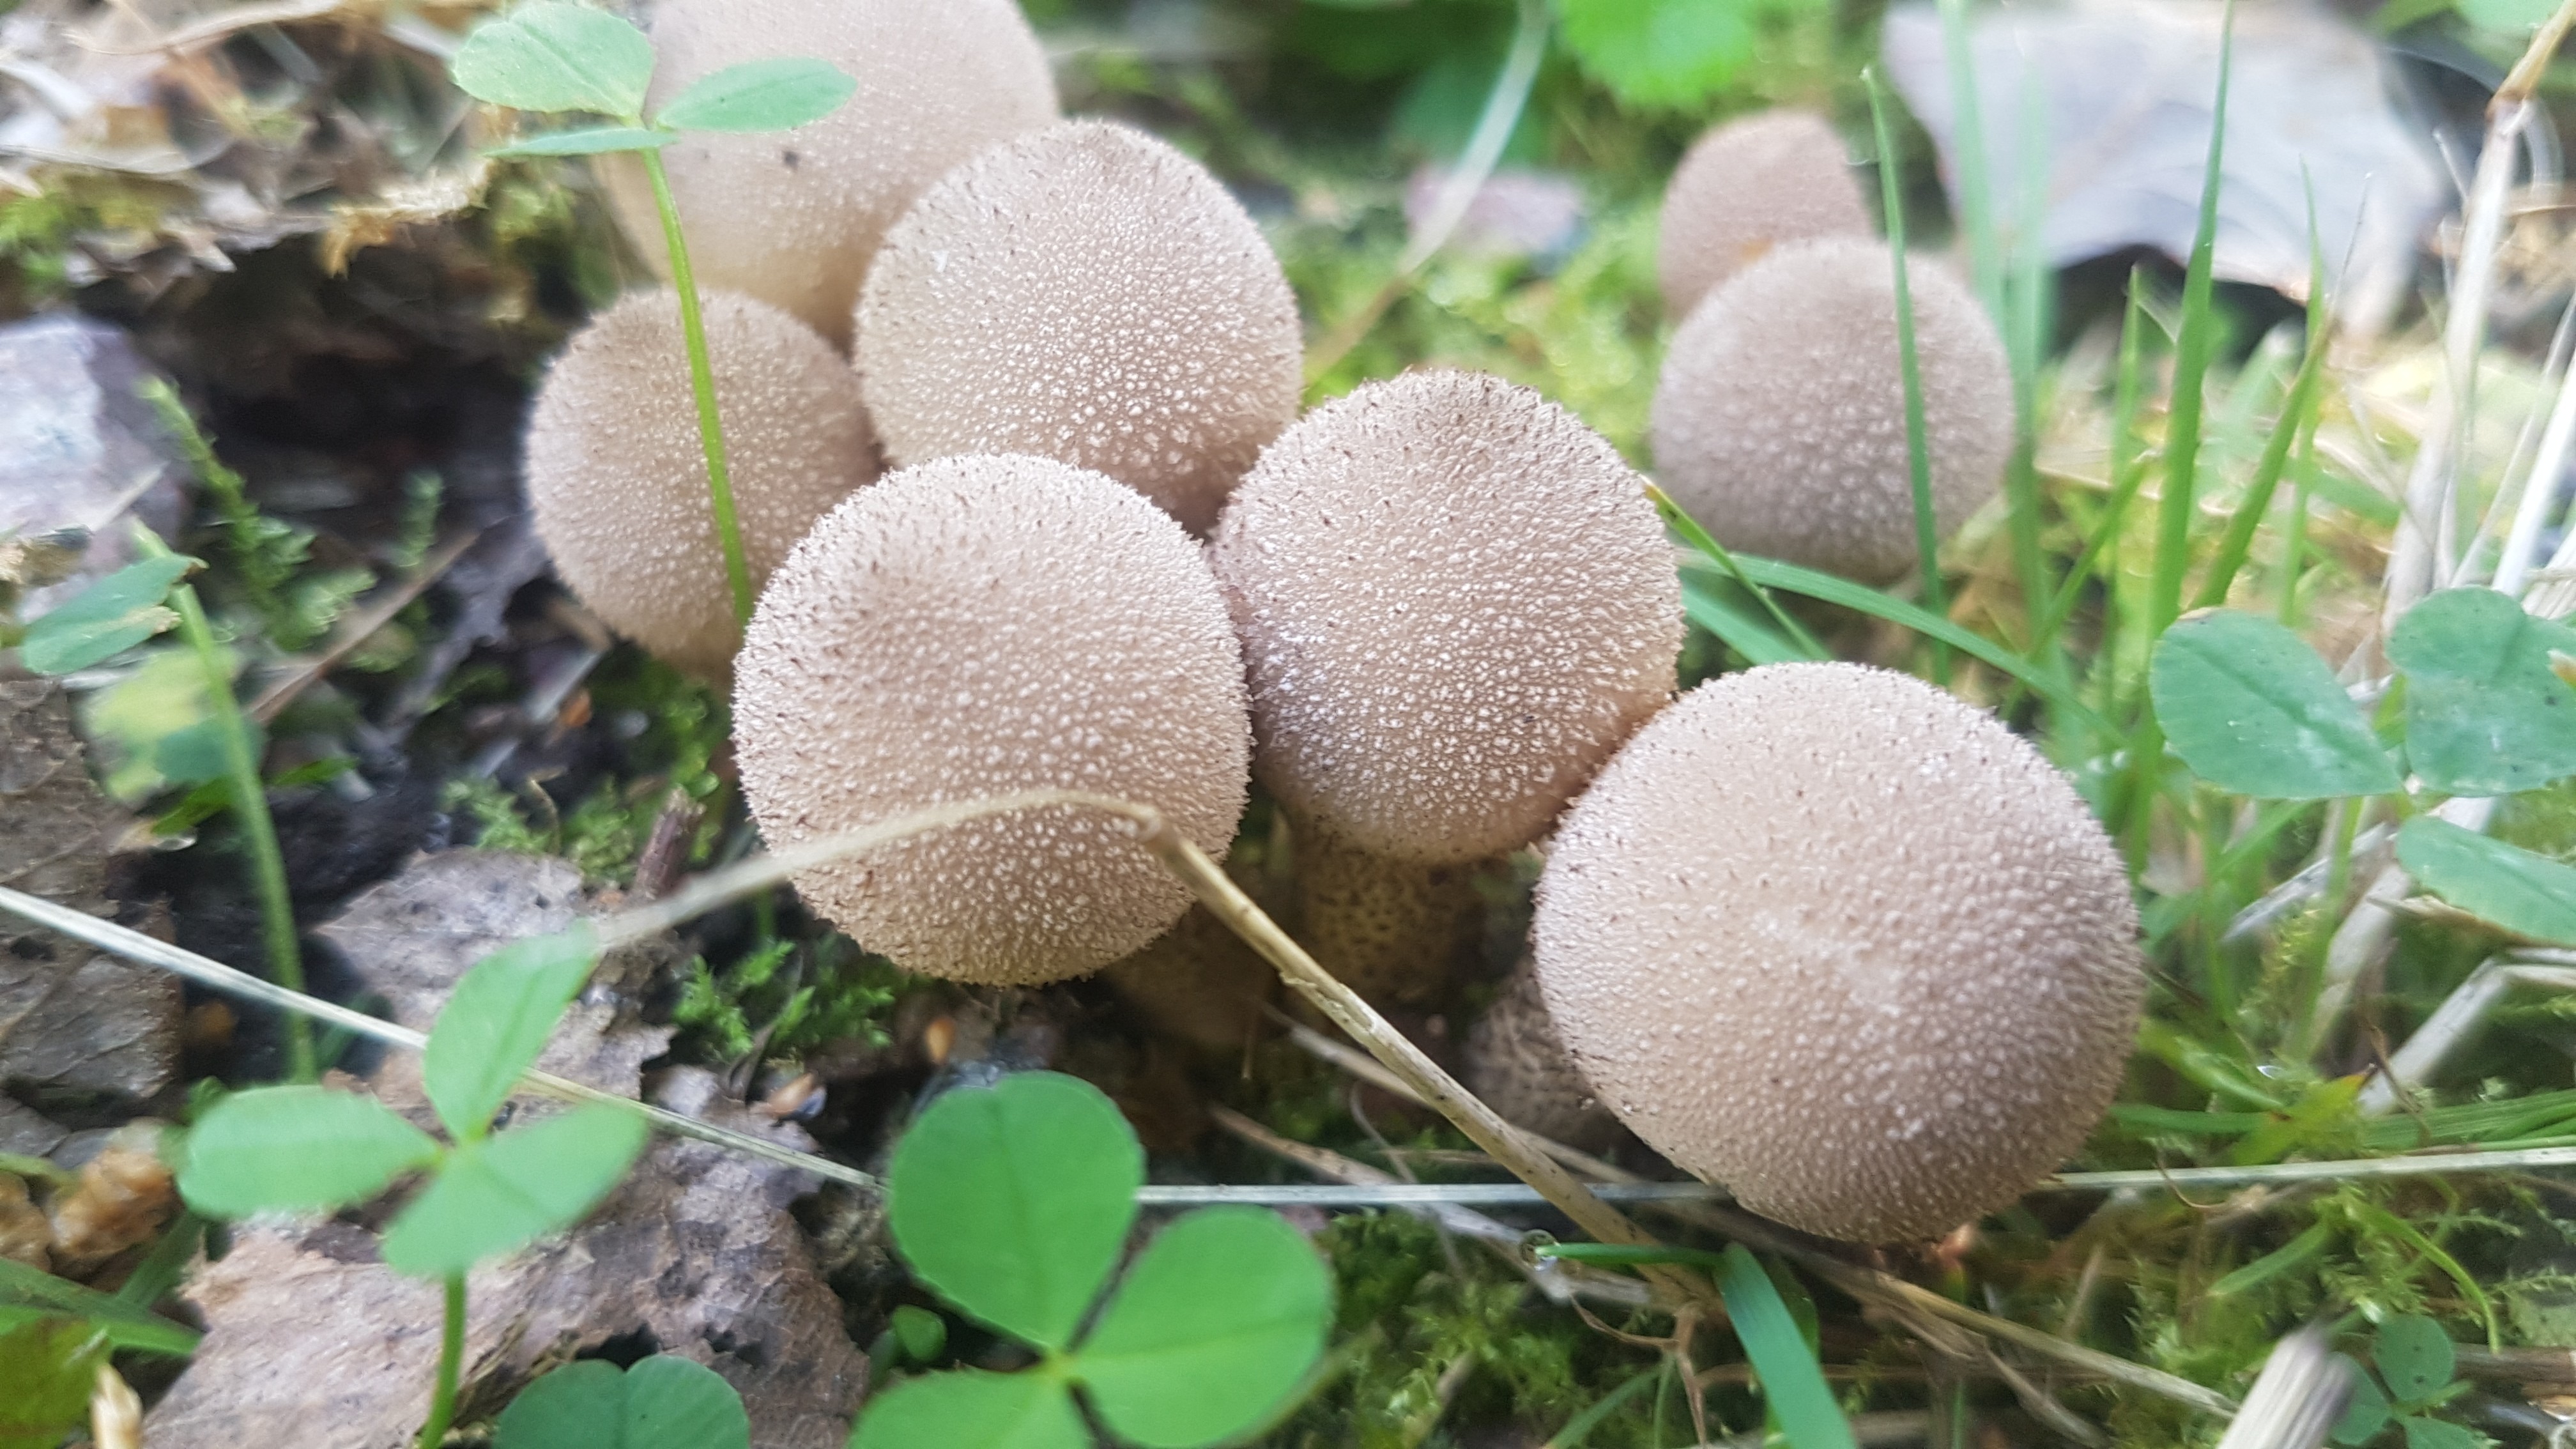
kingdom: Fungi
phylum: Basidiomycota
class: Agaricomycetes
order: Agaricales
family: Agaricaceae
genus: Lycoperdon
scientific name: Lycoperdon
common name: støvbold
